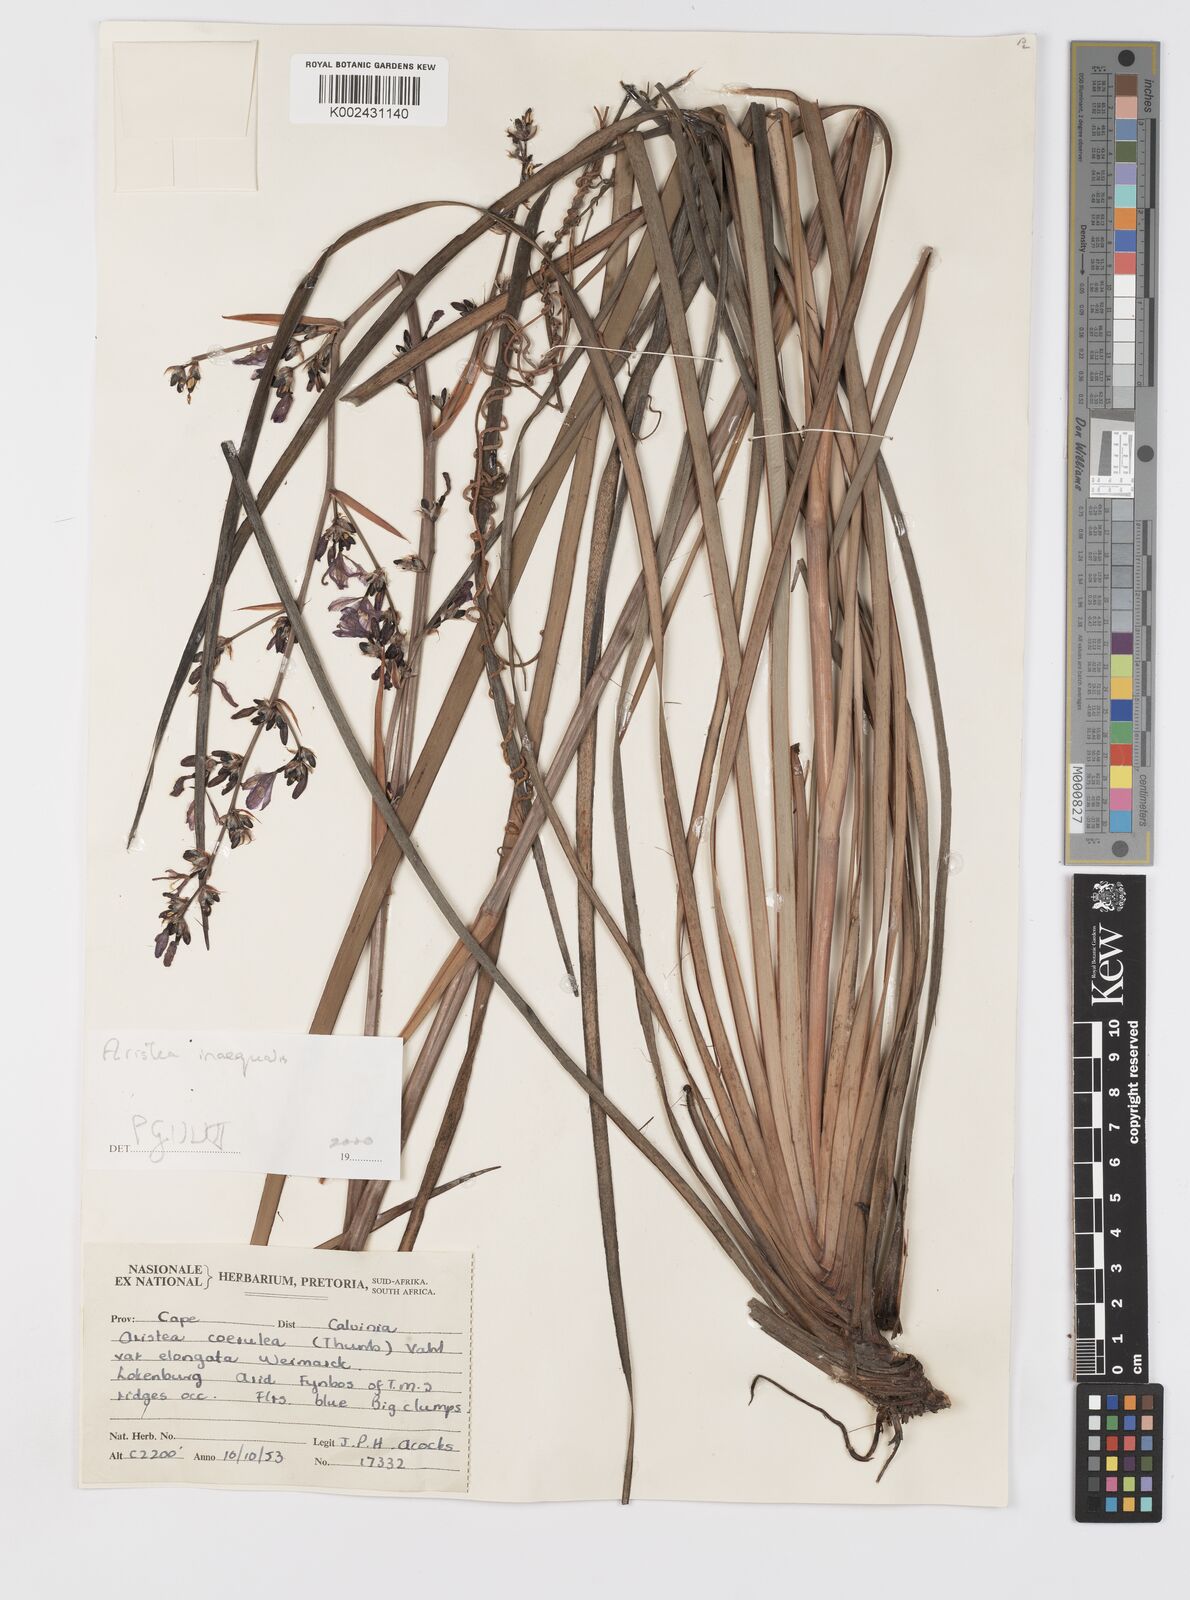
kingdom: Plantae
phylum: Tracheophyta
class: Liliopsida
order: Asparagales
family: Iridaceae
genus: Aristea
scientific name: Aristea monticola
